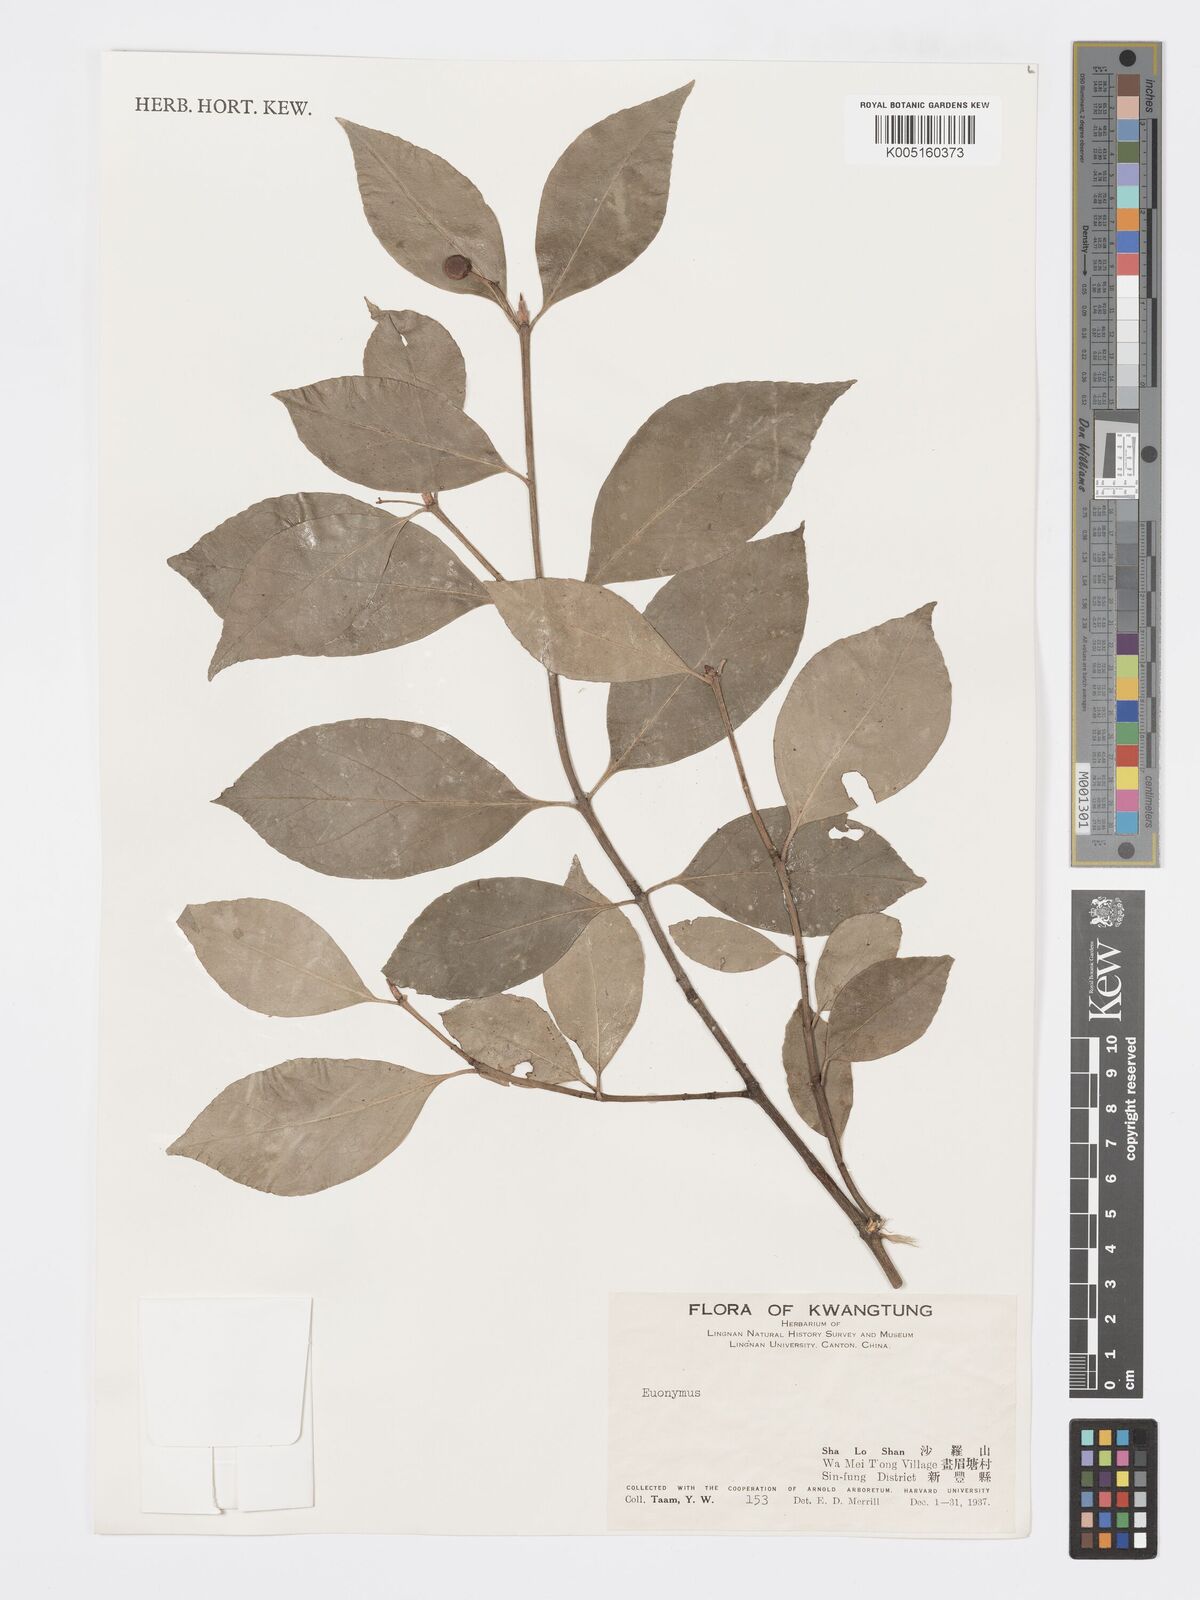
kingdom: Plantae
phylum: Tracheophyta
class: Magnoliopsida
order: Celastrales
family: Celastraceae
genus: Euonymus
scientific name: Euonymus
